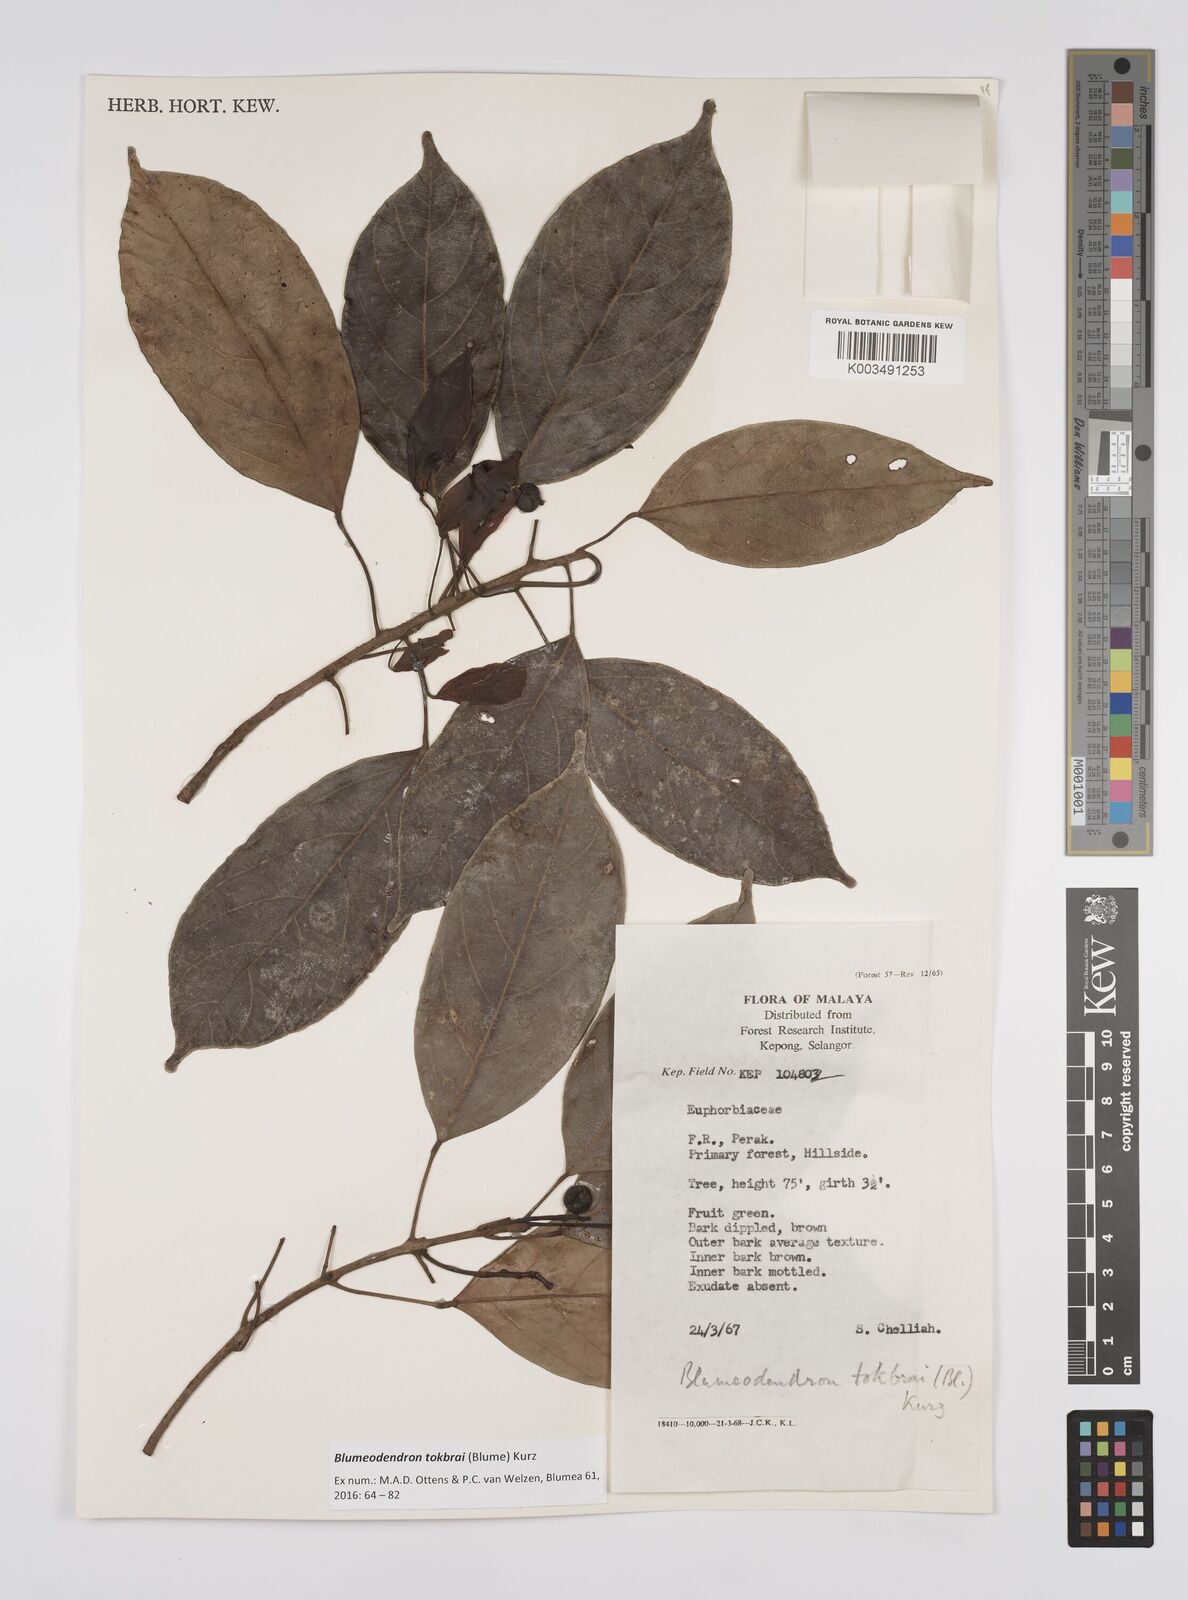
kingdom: Plantae
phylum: Tracheophyta
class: Magnoliopsida
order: Malpighiales
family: Euphorbiaceae
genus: Blumeodendron
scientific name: Blumeodendron tokbrai
